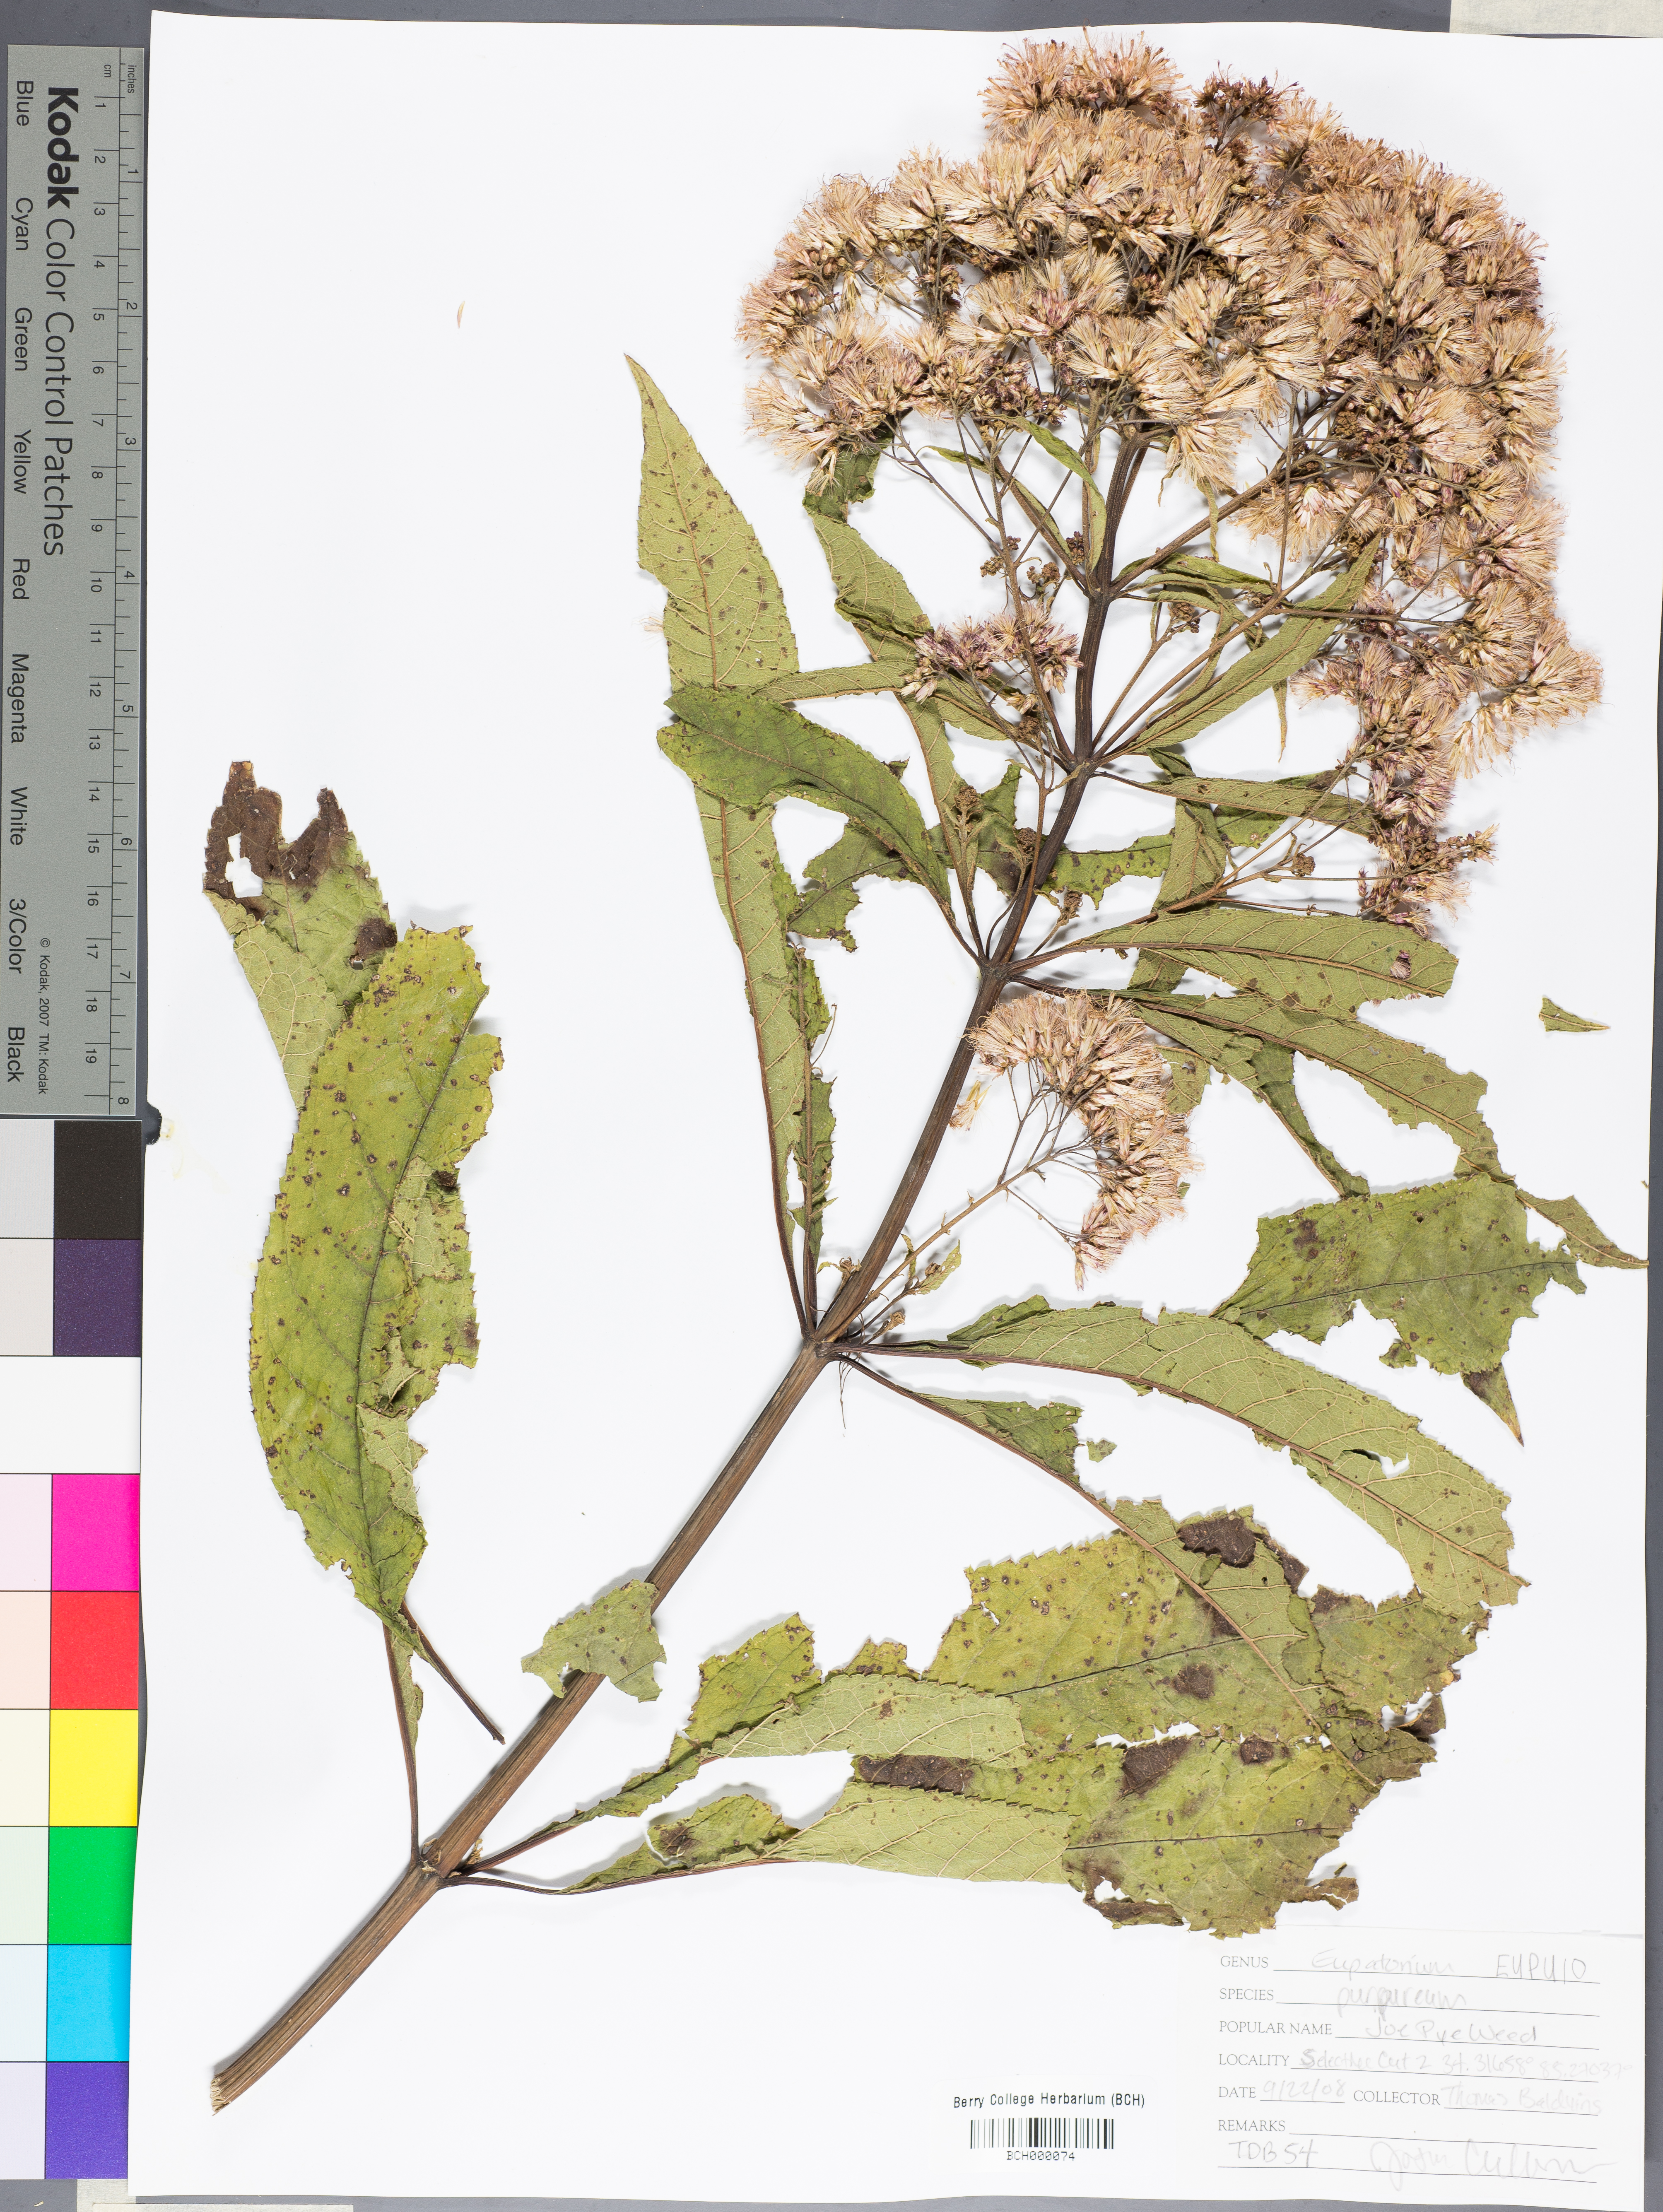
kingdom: Plantae
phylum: Tracheophyta
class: Magnoliopsida
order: Asterales
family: Asteraceae
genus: Eupatorium
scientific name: Eupatorium quaternum
